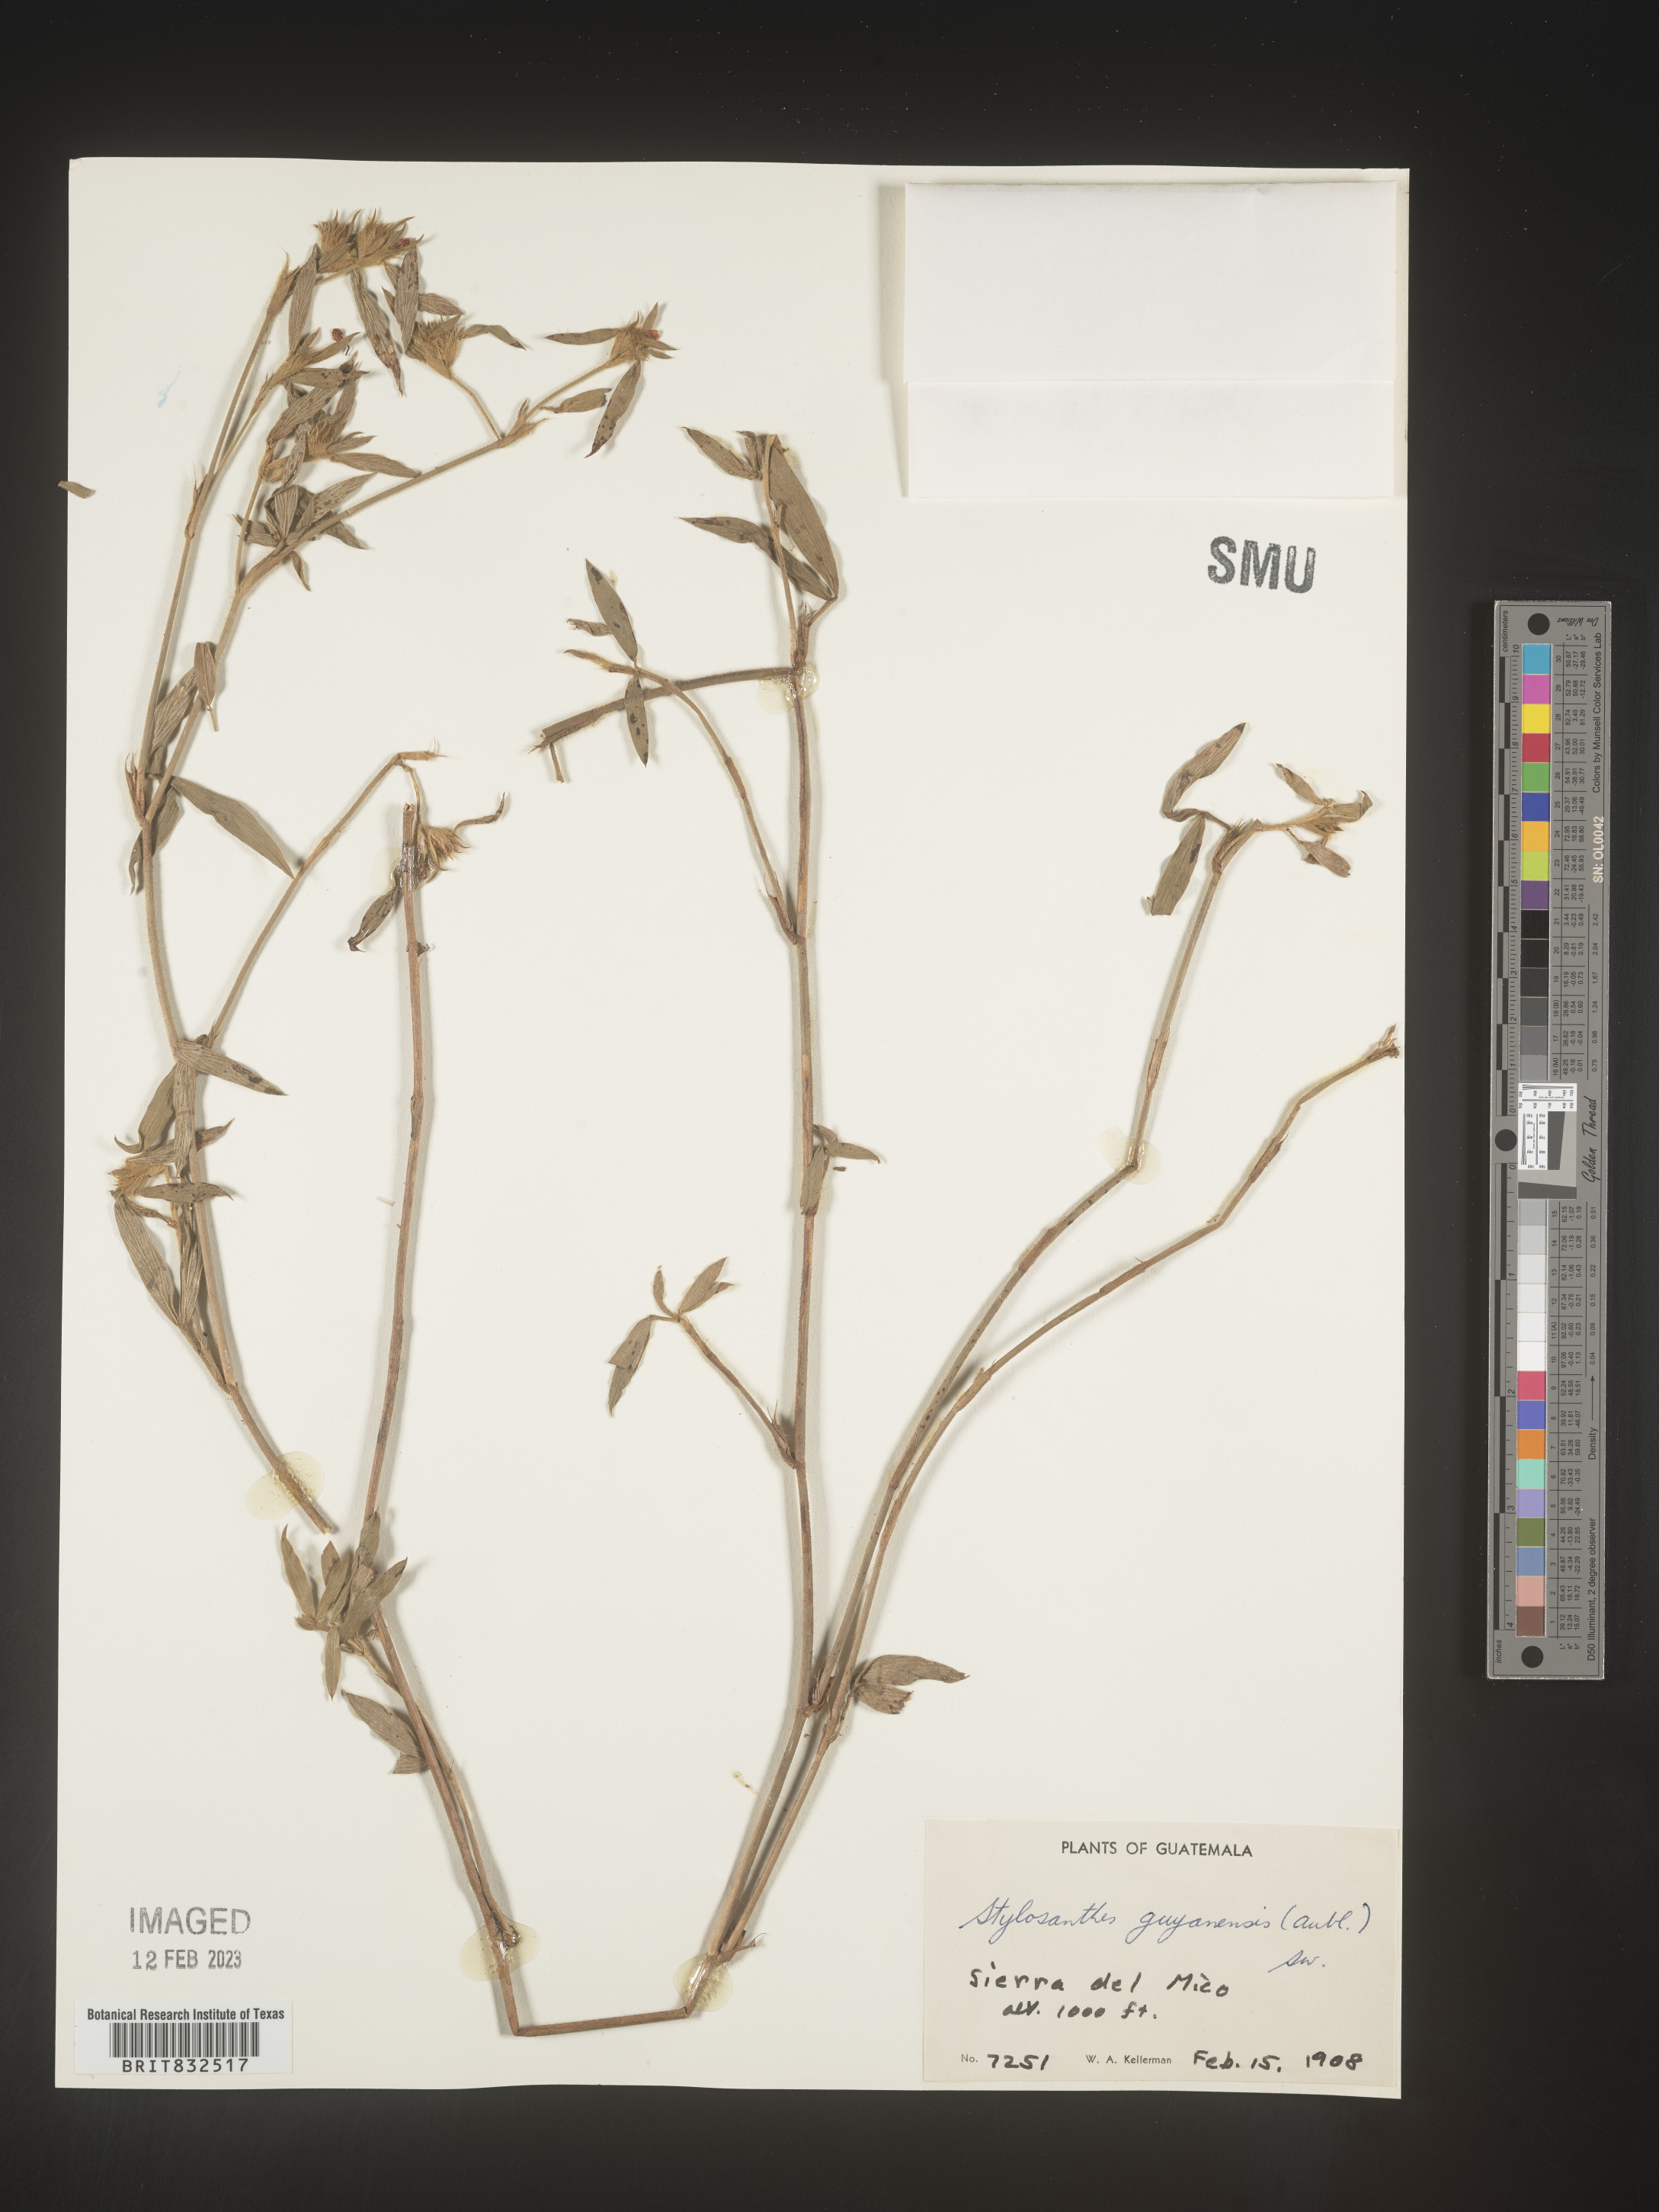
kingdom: Plantae
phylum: Tracheophyta
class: Magnoliopsida
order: Fabales
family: Fabaceae
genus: Stylosanthes
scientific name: Stylosanthes
